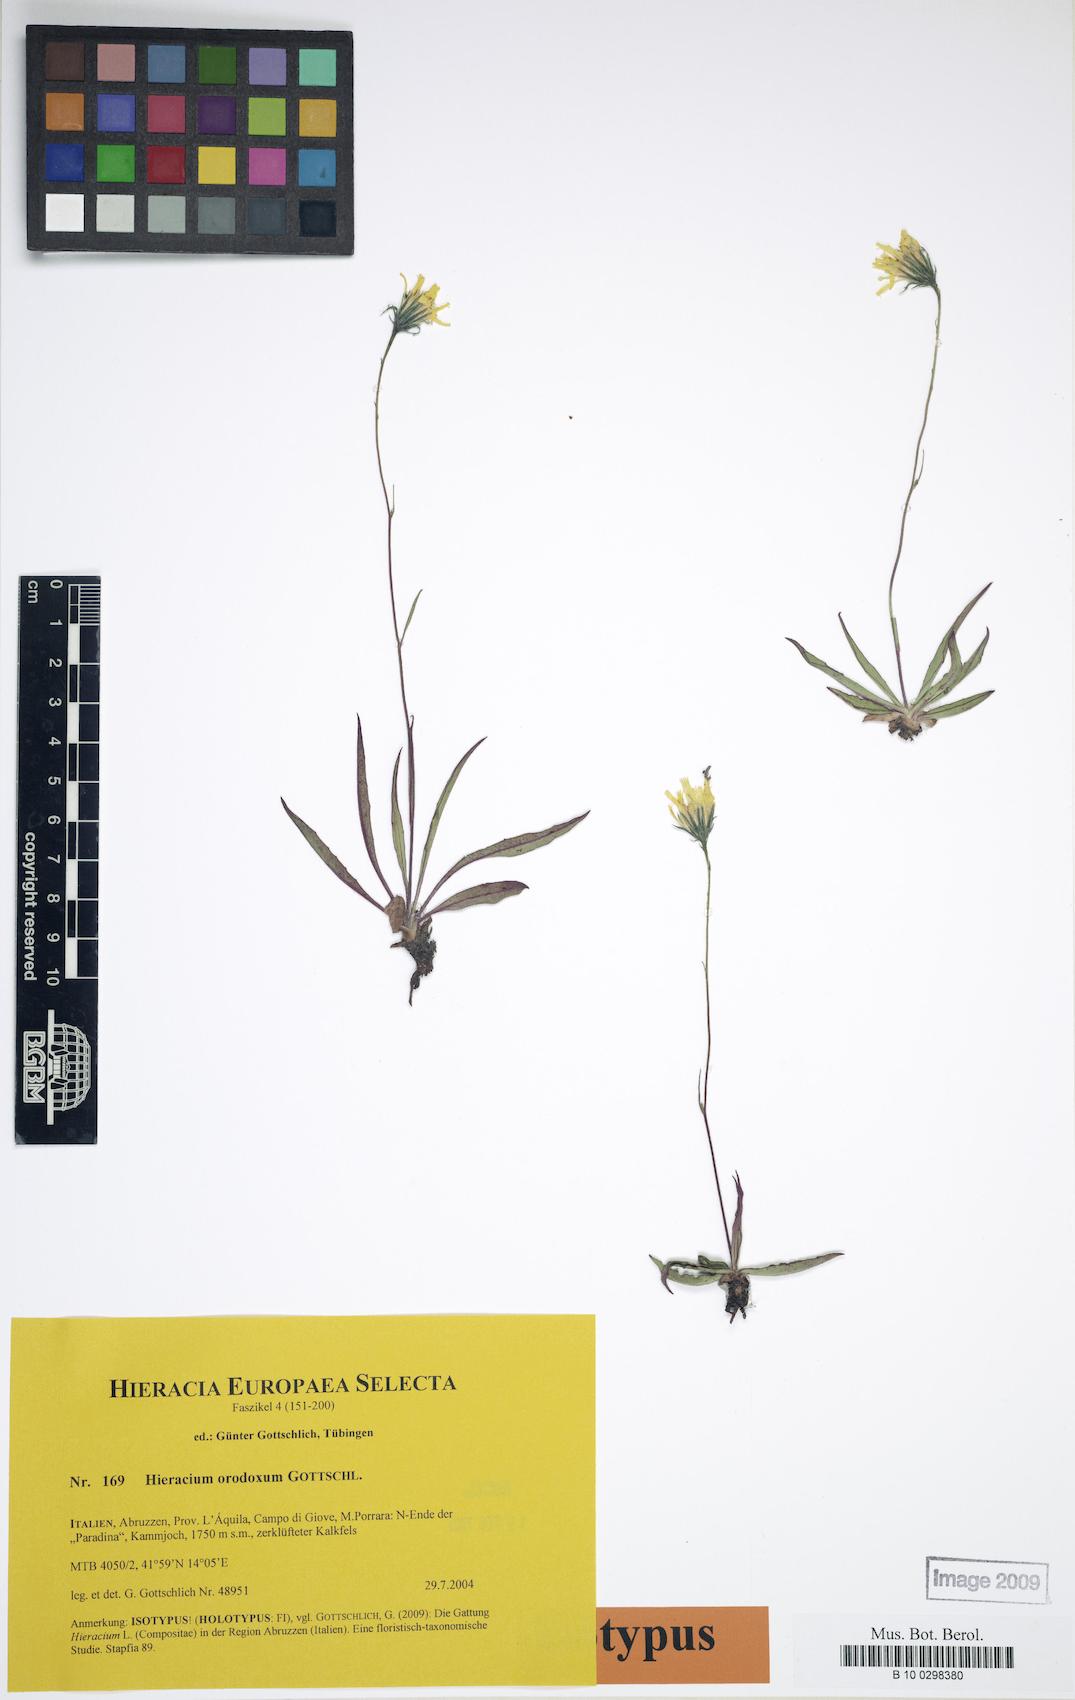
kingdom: Plantae
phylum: Tracheophyta
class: Magnoliopsida
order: Asterales
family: Asteraceae
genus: Hieracium
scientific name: Hieracium orodoxum
